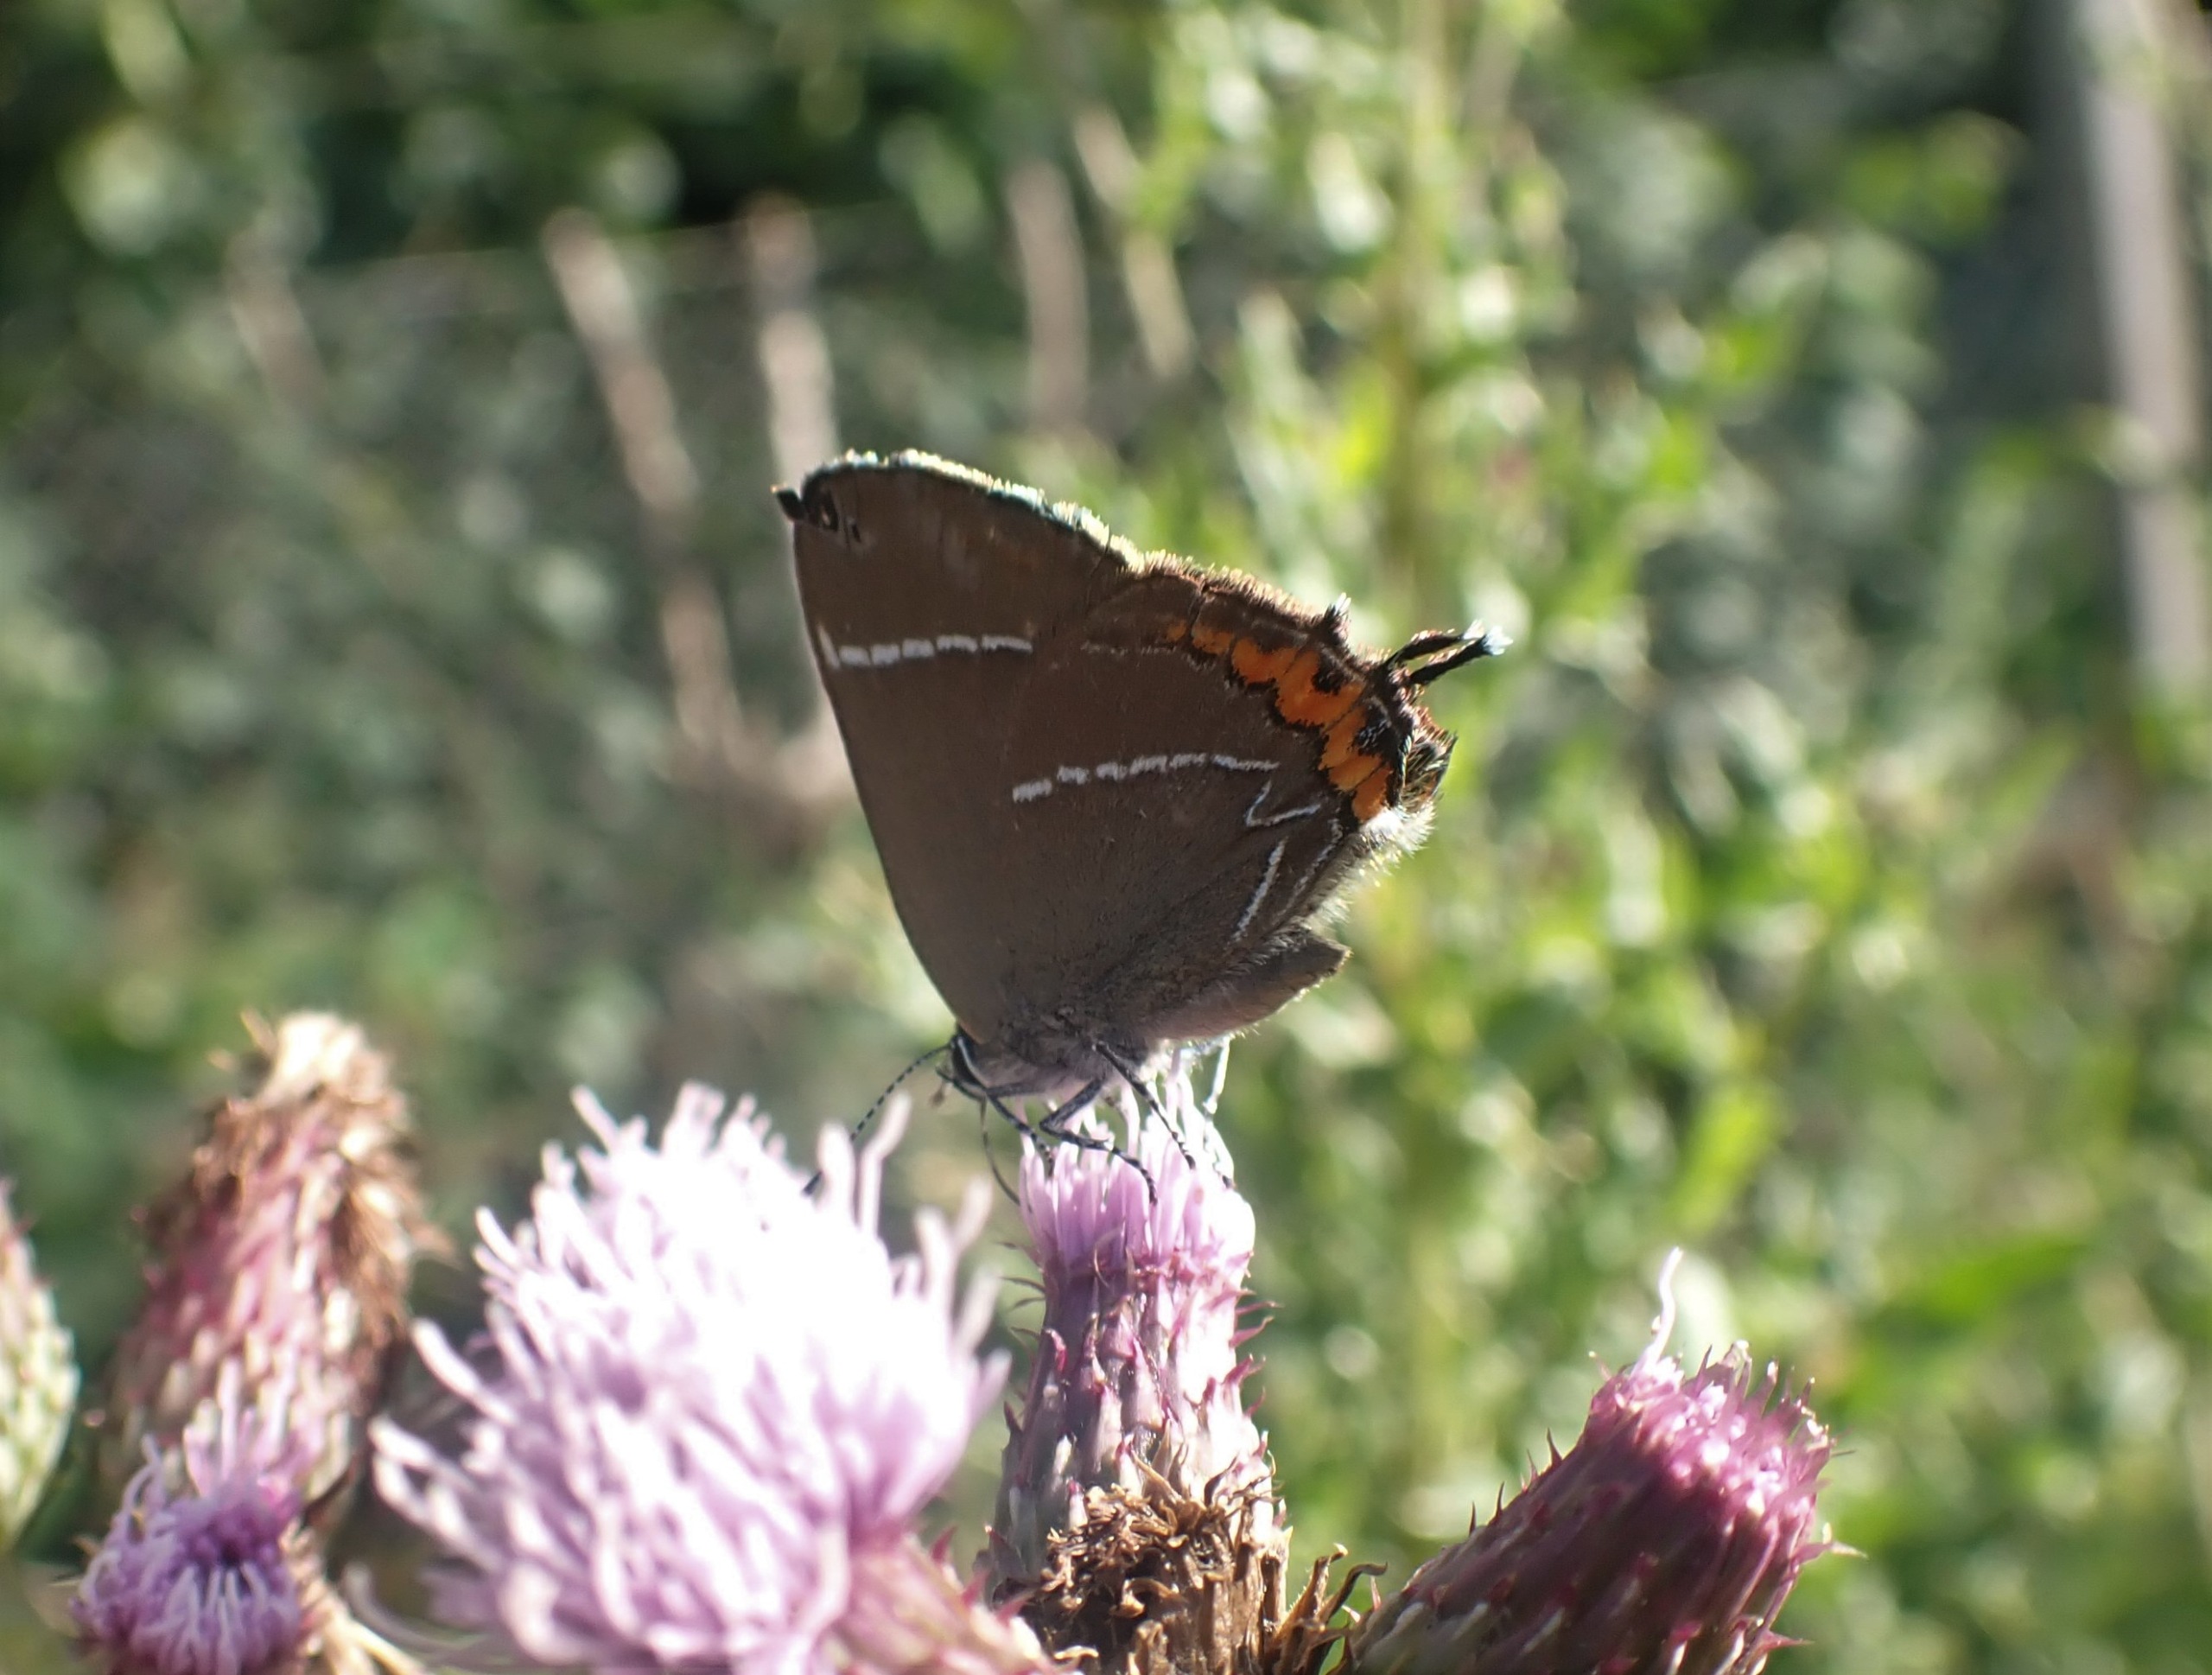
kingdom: Animalia
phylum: Arthropoda
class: Insecta
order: Lepidoptera
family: Lycaenidae
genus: Satyrium
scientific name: Satyrium w-album
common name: Det hvide W
